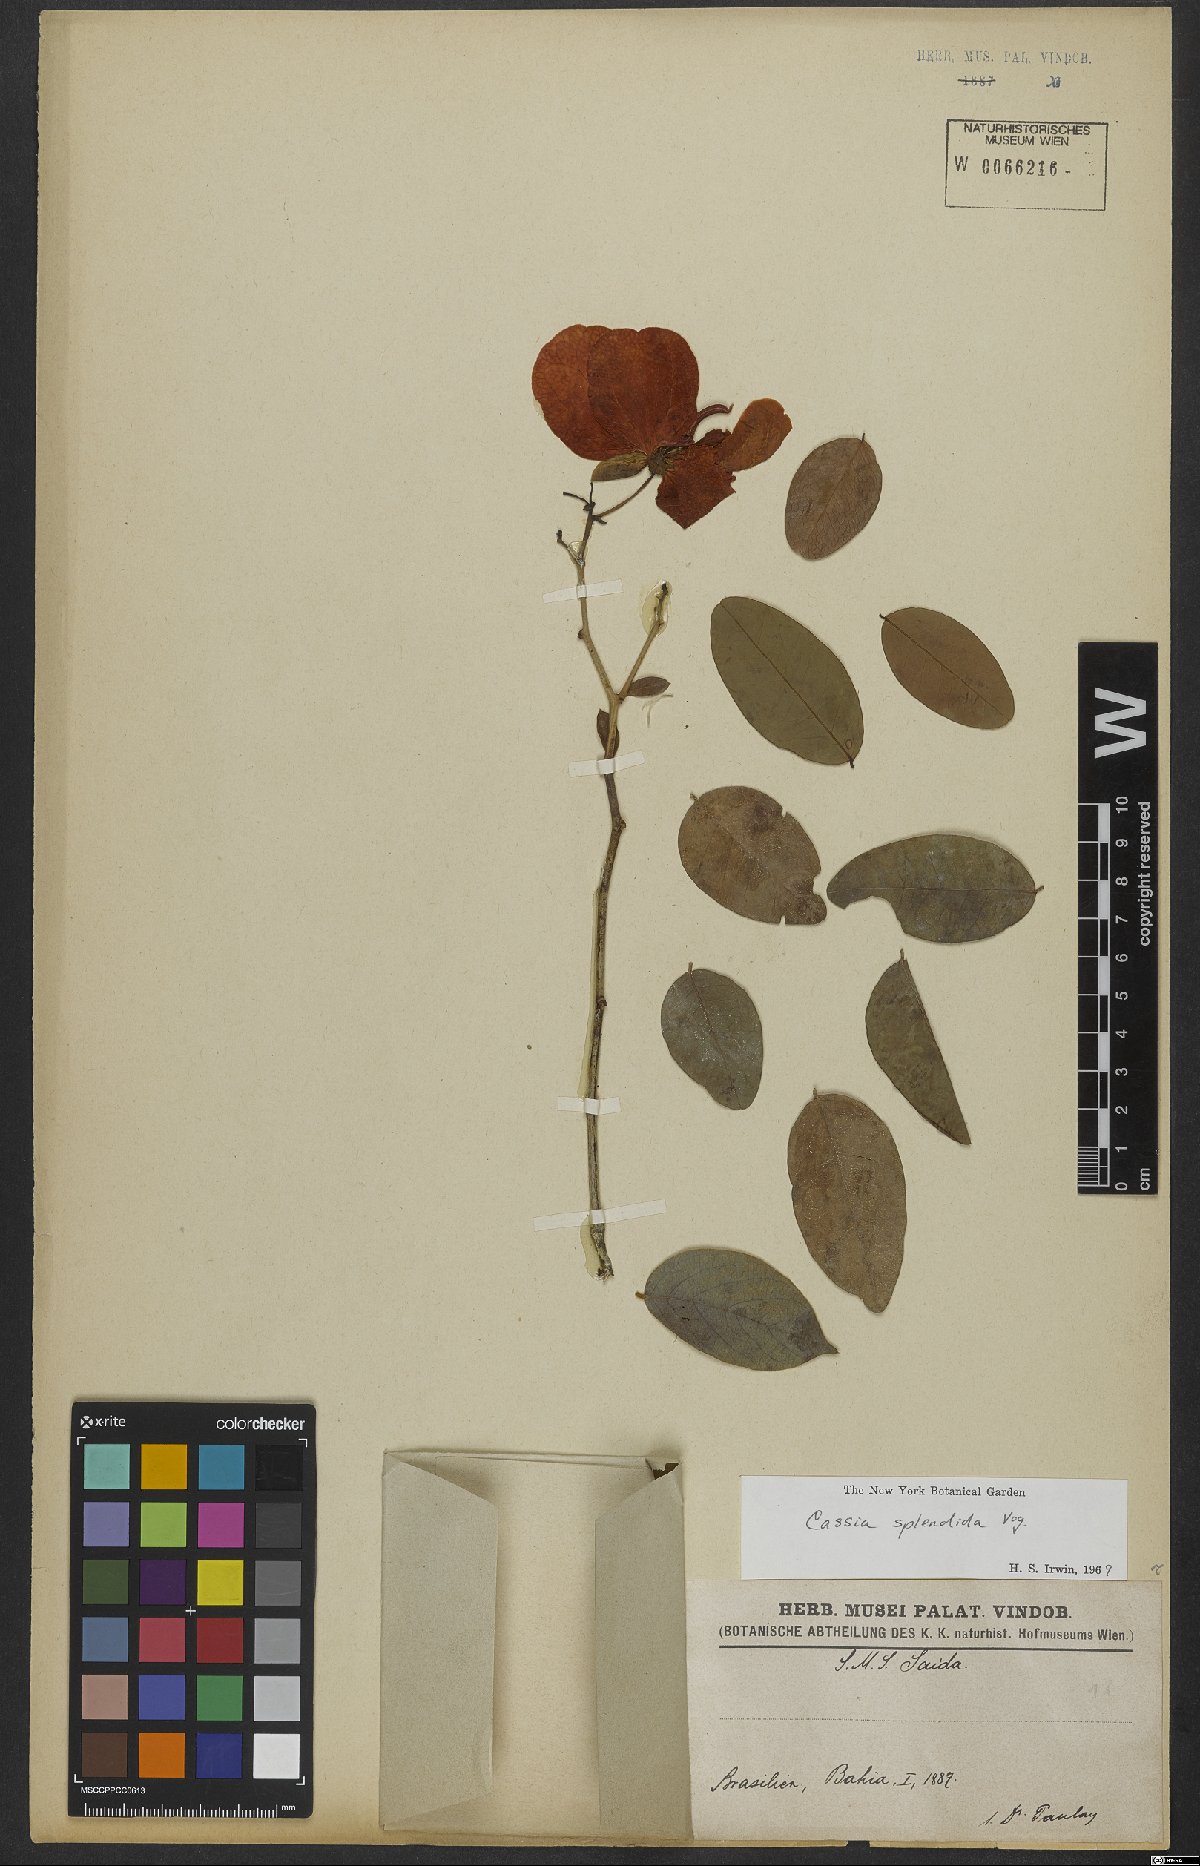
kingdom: Plantae
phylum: Tracheophyta
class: Magnoliopsida
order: Fabales
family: Fabaceae
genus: Senna
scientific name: Senna splendida
